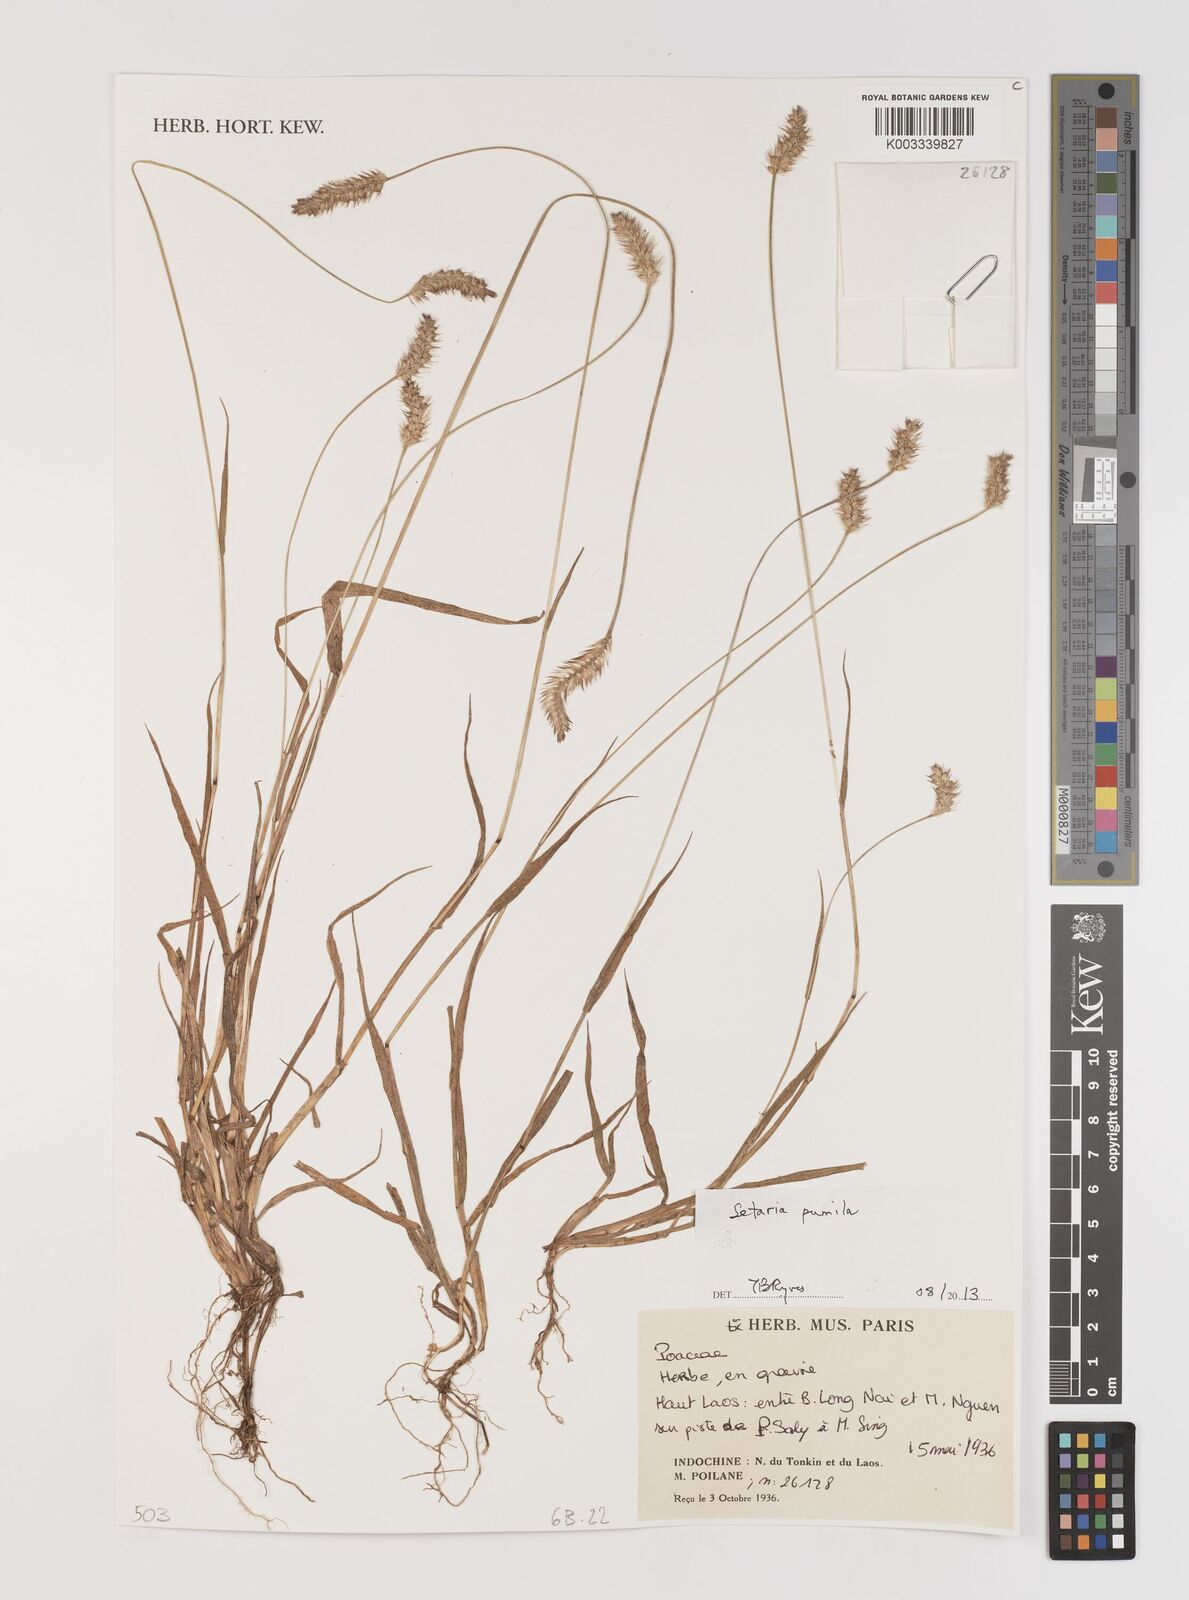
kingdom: Plantae
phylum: Tracheophyta
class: Liliopsida
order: Poales
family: Poaceae
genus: Setaria
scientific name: Setaria pumila
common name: Yellow bristle-grass
